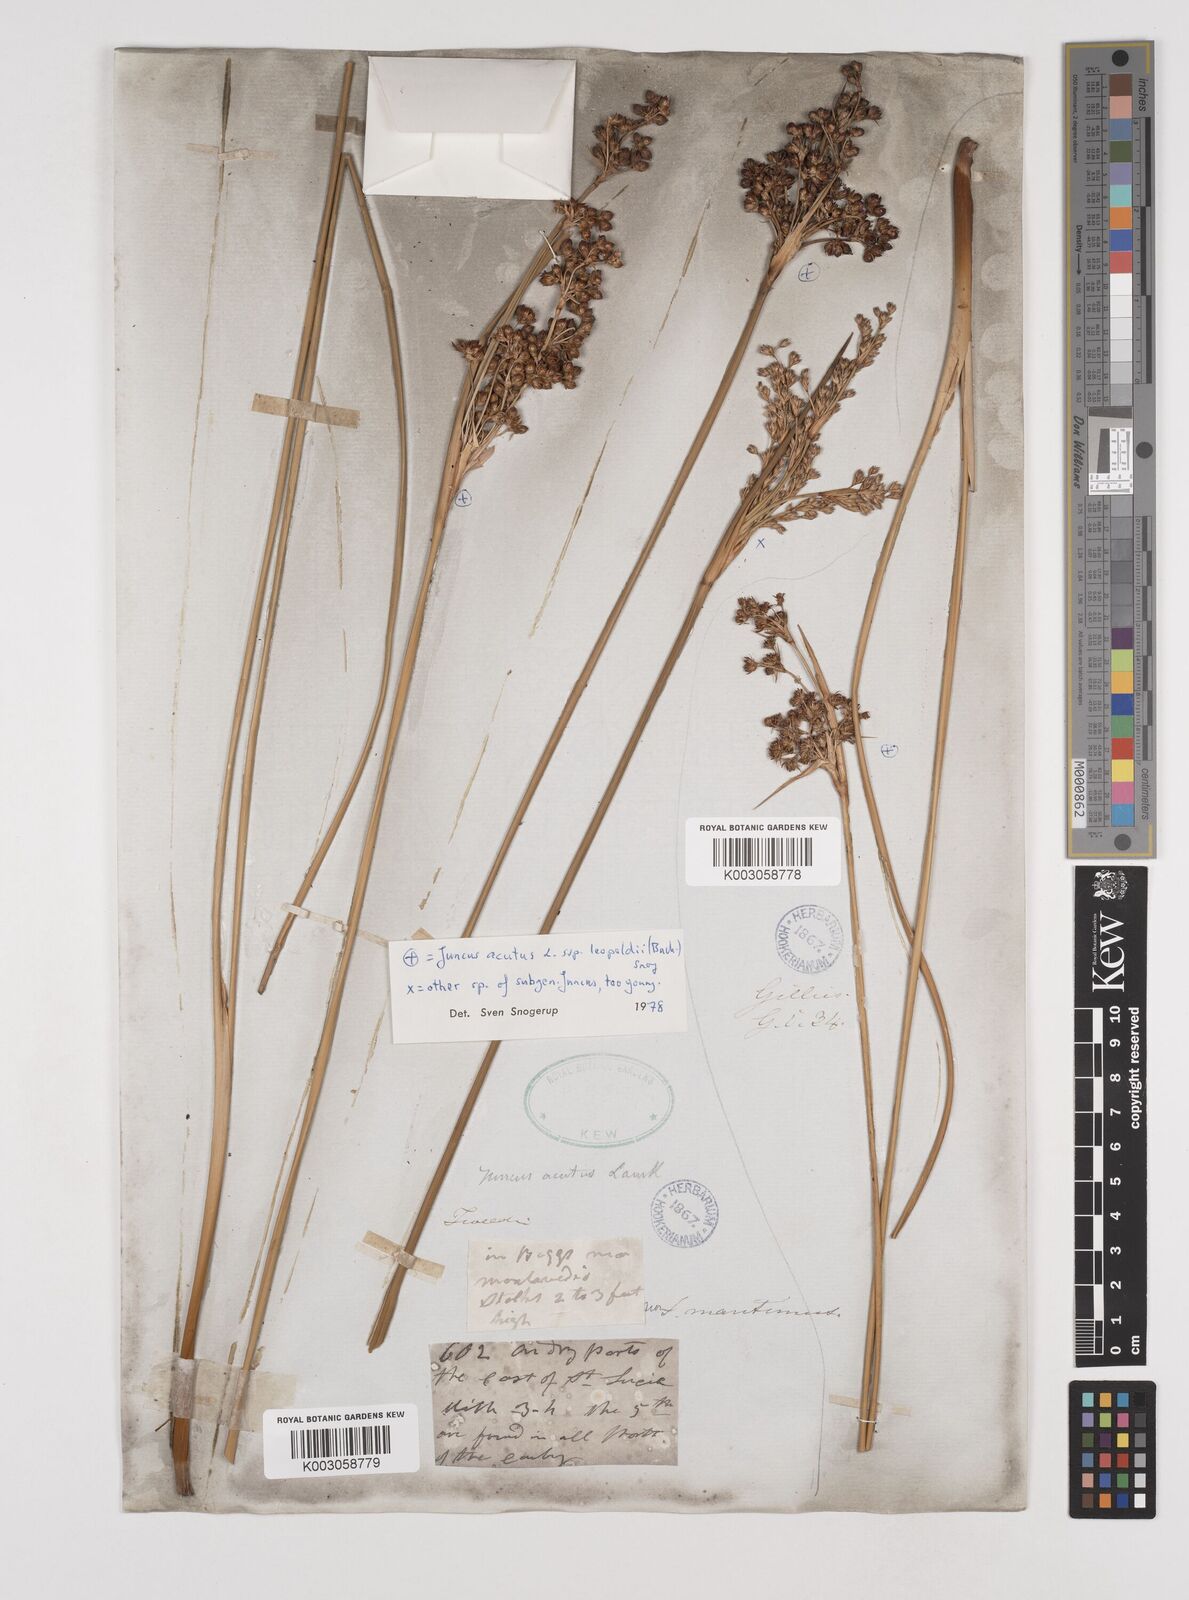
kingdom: Plantae
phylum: Tracheophyta
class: Liliopsida
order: Poales
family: Juncaceae
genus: Juncus
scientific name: Juncus acutus
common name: Sharp rush
